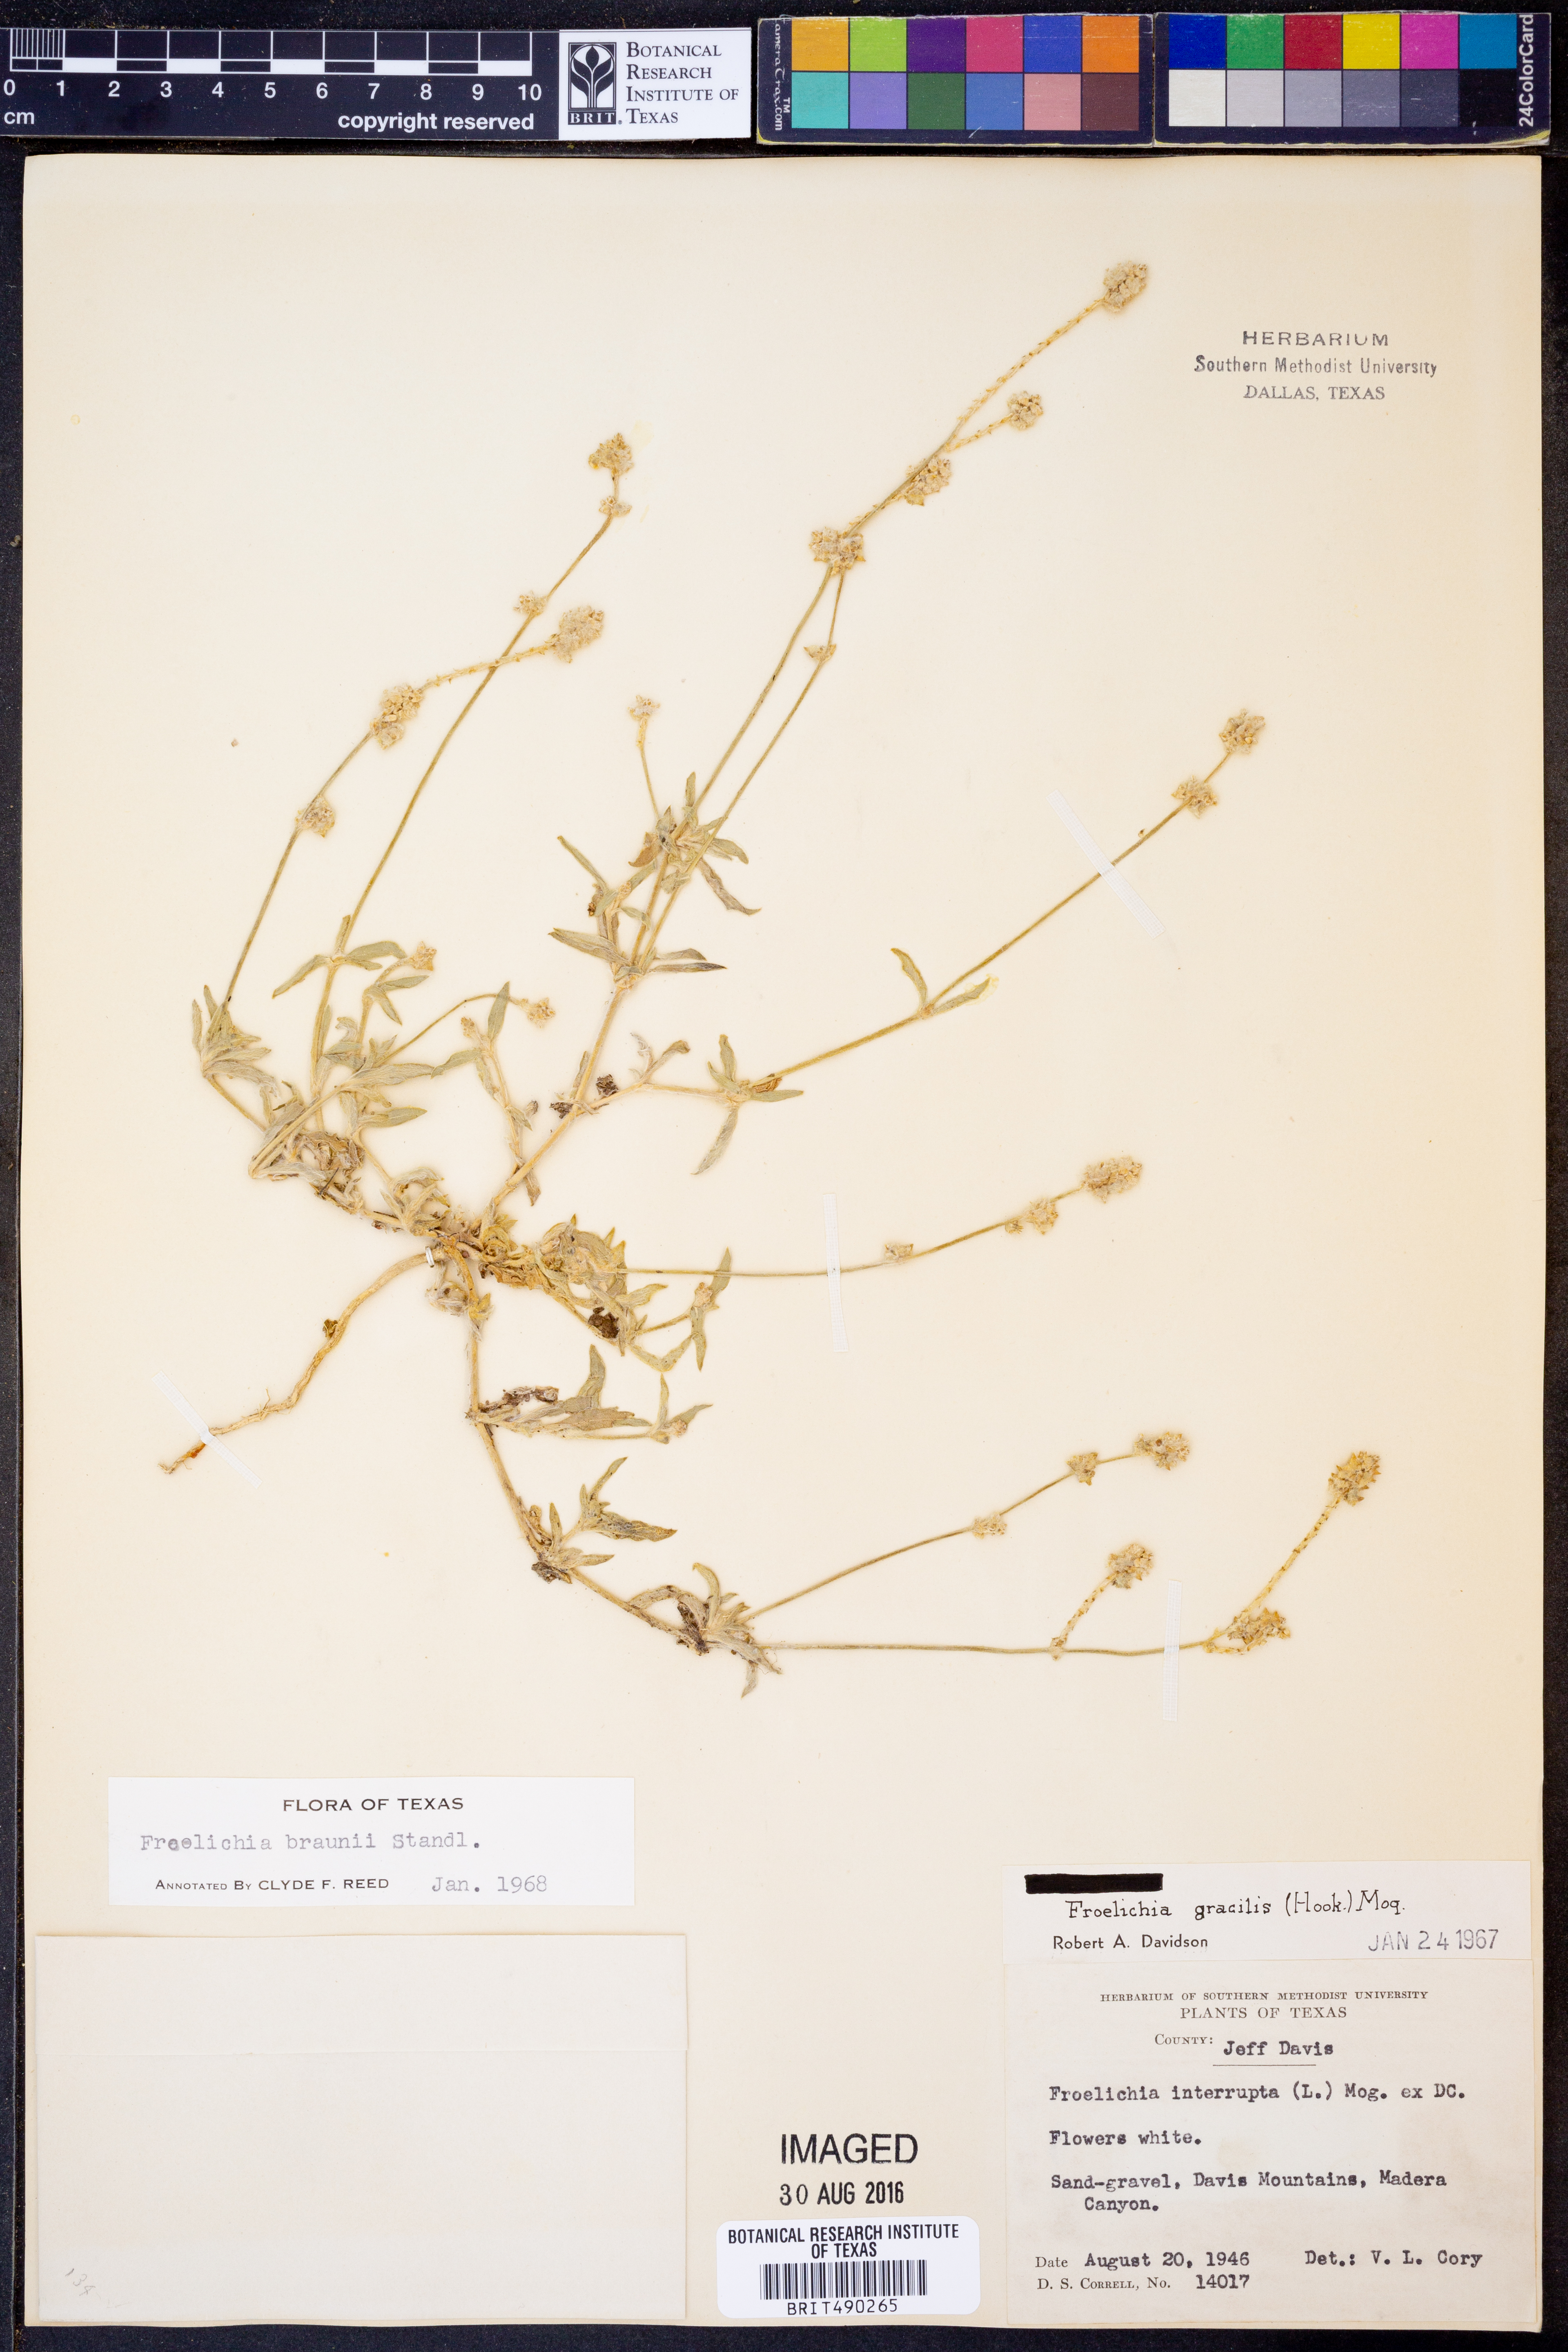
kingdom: Plantae
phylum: Tracheophyta
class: Magnoliopsida
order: Caryophyllales
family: Amaranthaceae
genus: Froelichia
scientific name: Froelichia gracilis
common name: Slender cottonweed
